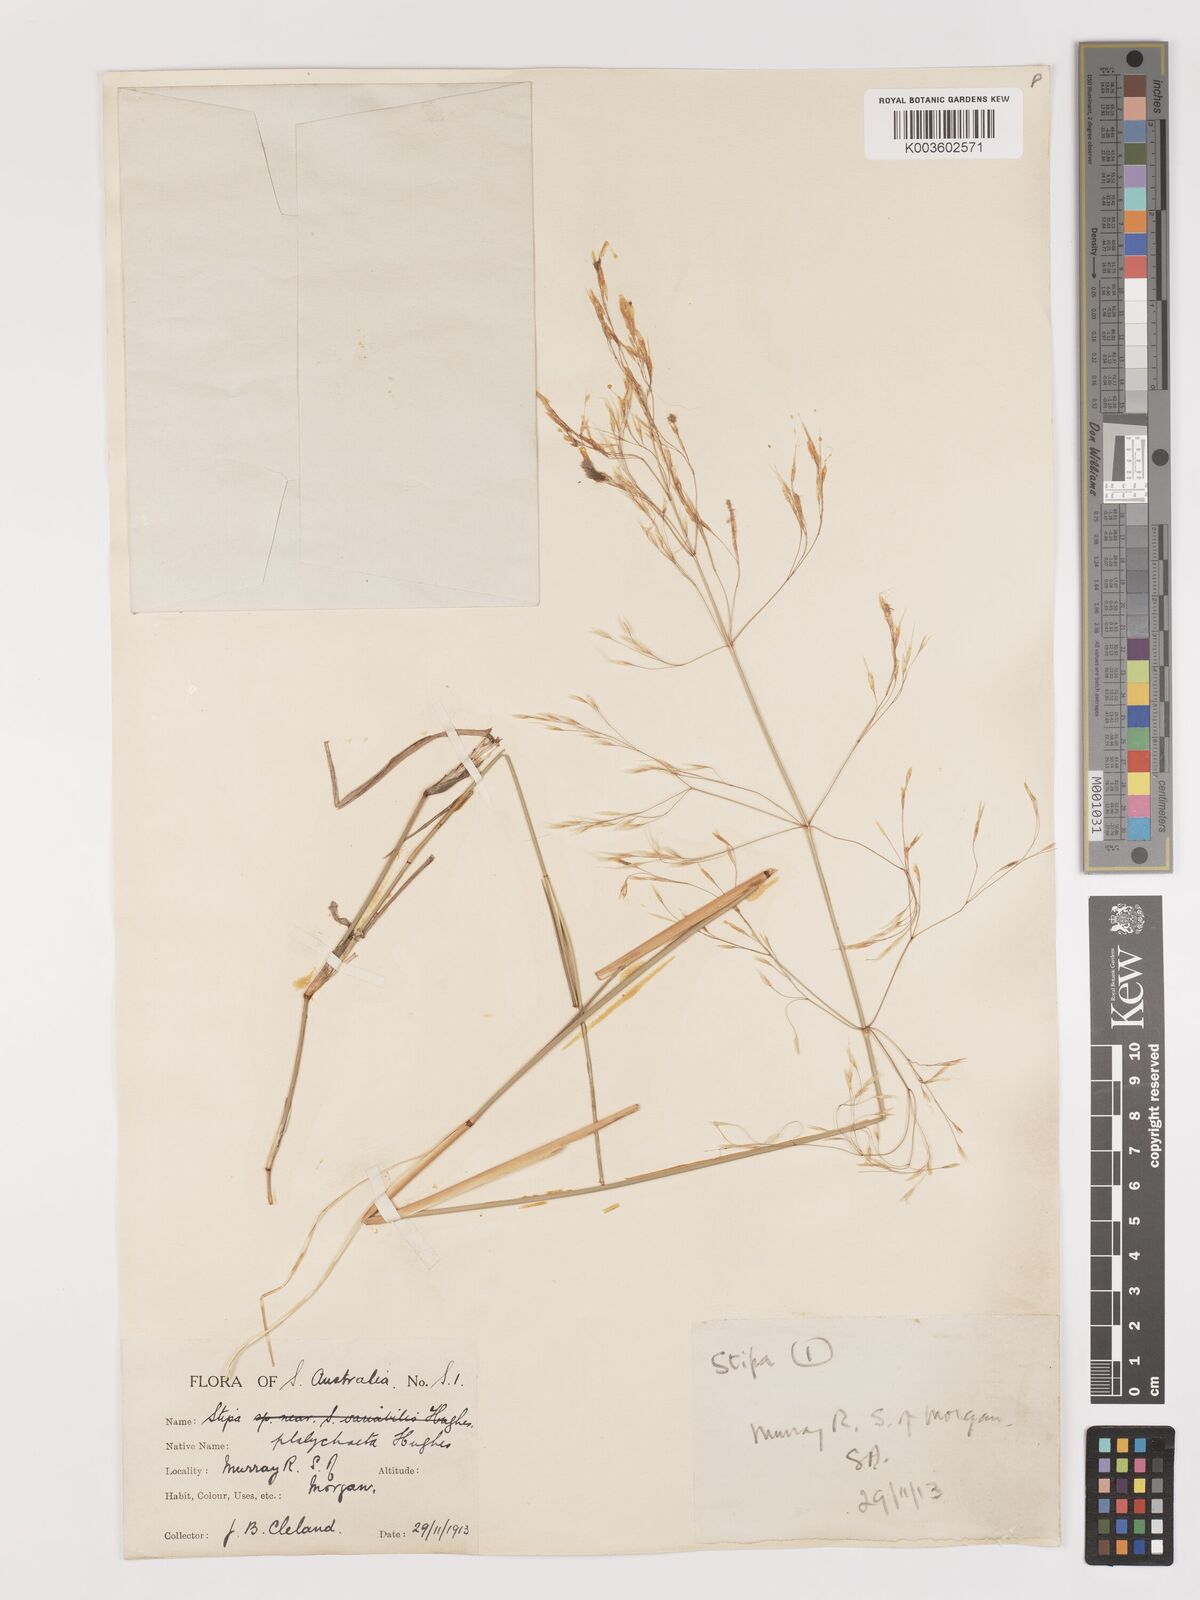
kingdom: Plantae
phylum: Tracheophyta
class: Liliopsida
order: Poales
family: Poaceae
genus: Austrostipa
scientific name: Austrostipa platychaeta
